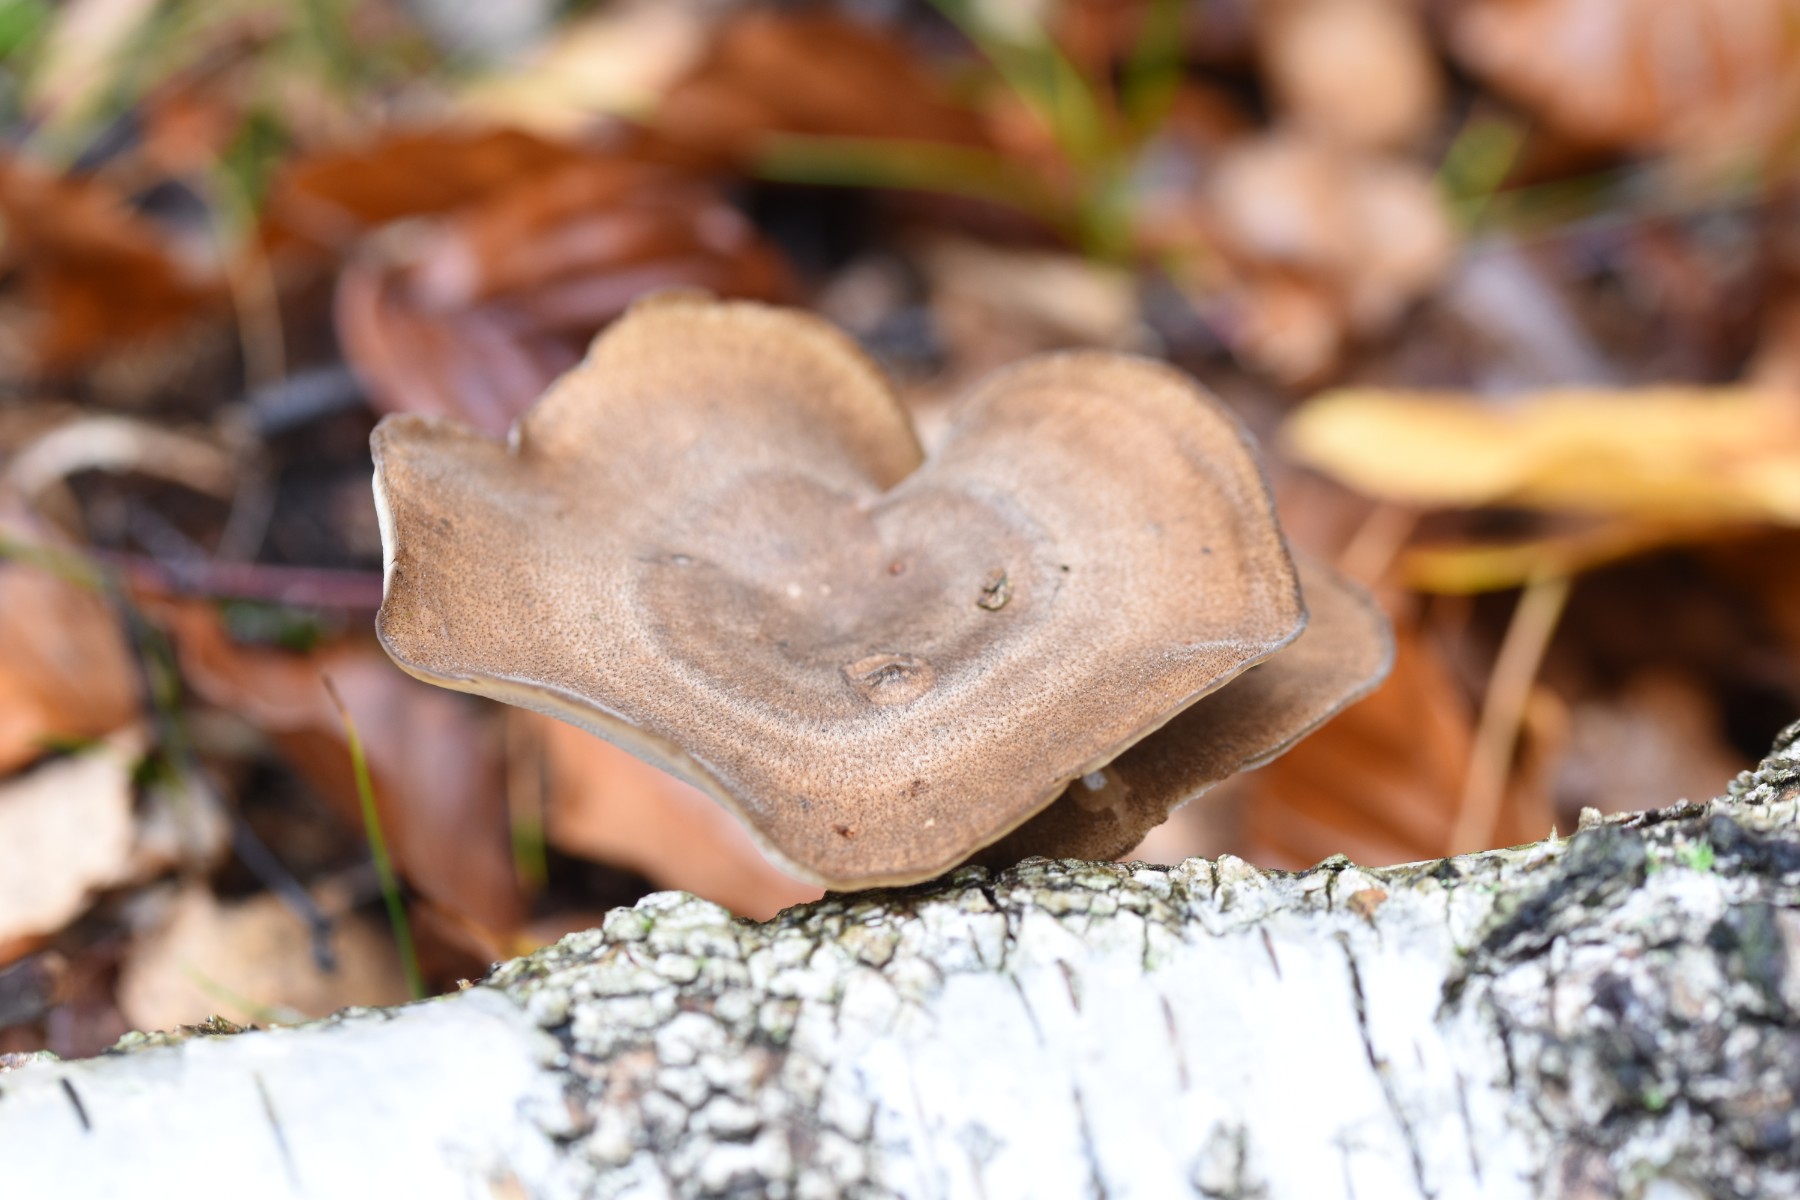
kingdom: Fungi
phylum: Basidiomycota
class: Agaricomycetes
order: Polyporales
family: Polyporaceae
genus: Lentinus
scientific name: Lentinus brumalis
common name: vinter-stilkporesvamp
